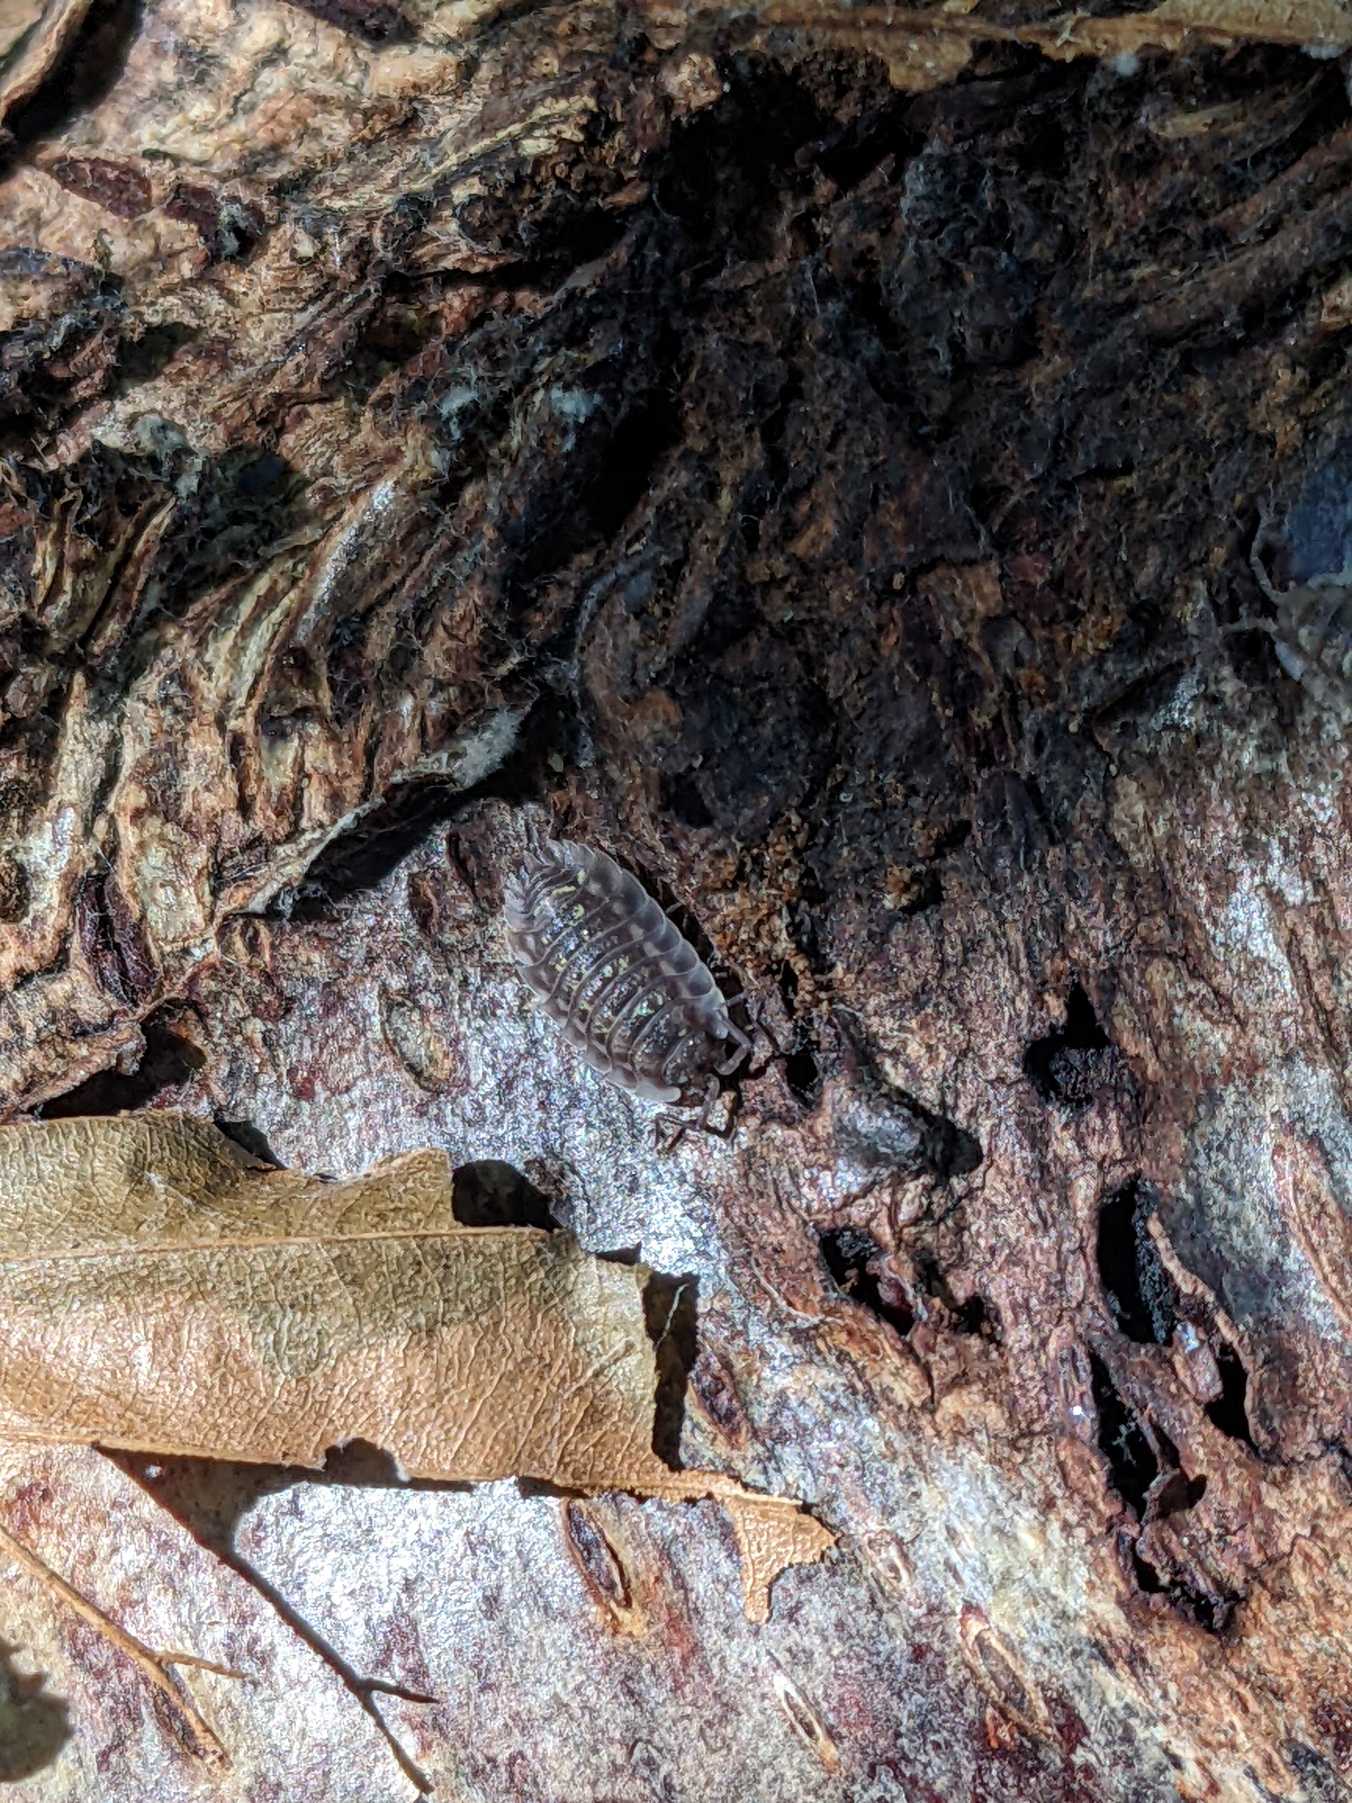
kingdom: Animalia
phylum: Arthropoda
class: Malacostraca
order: Isopoda
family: Oniscidae
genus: Oniscus
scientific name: Oniscus asellus
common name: Glat bænkebider
